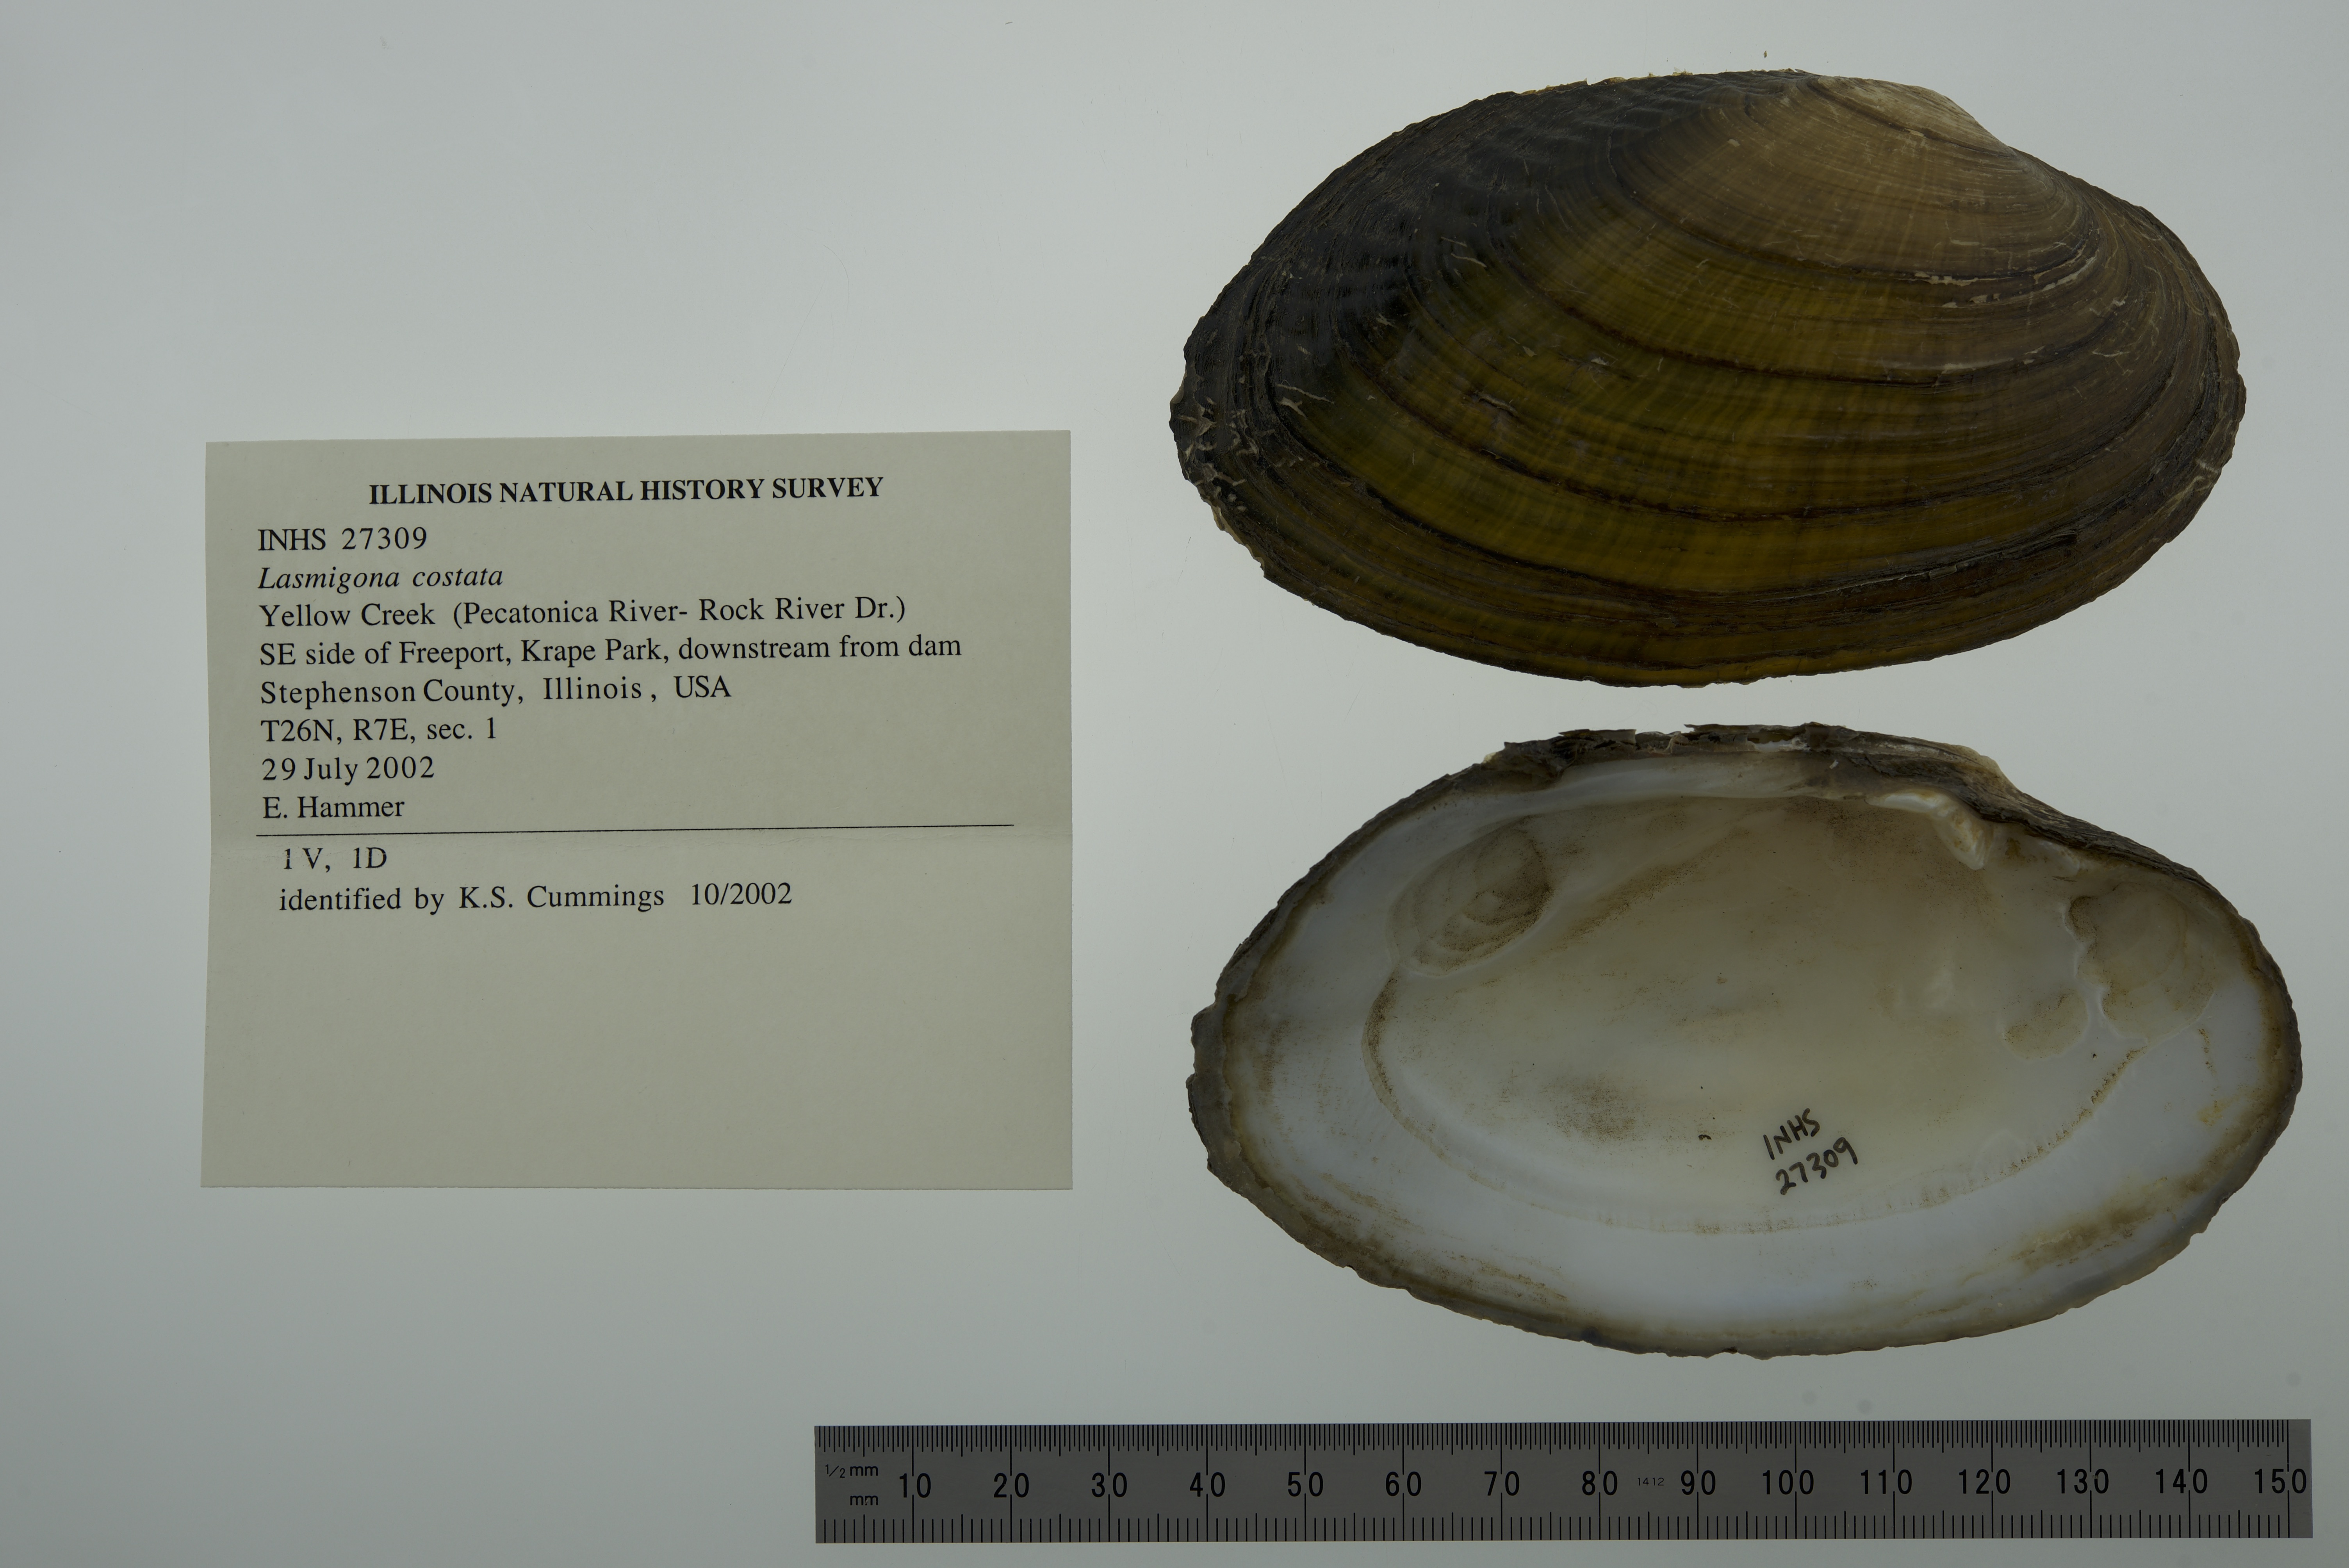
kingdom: Animalia
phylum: Mollusca
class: Bivalvia
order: Unionida
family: Unionidae
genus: Lasmigona
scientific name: Lasmigona costata
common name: Flutedshell
